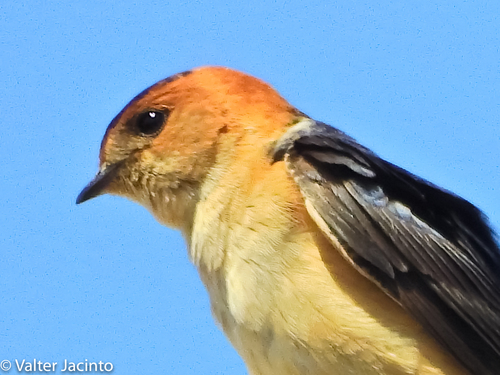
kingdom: Animalia
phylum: Chordata
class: Aves
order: Passeriformes
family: Hirundinidae
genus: Cecropis
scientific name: Cecropis daurica
